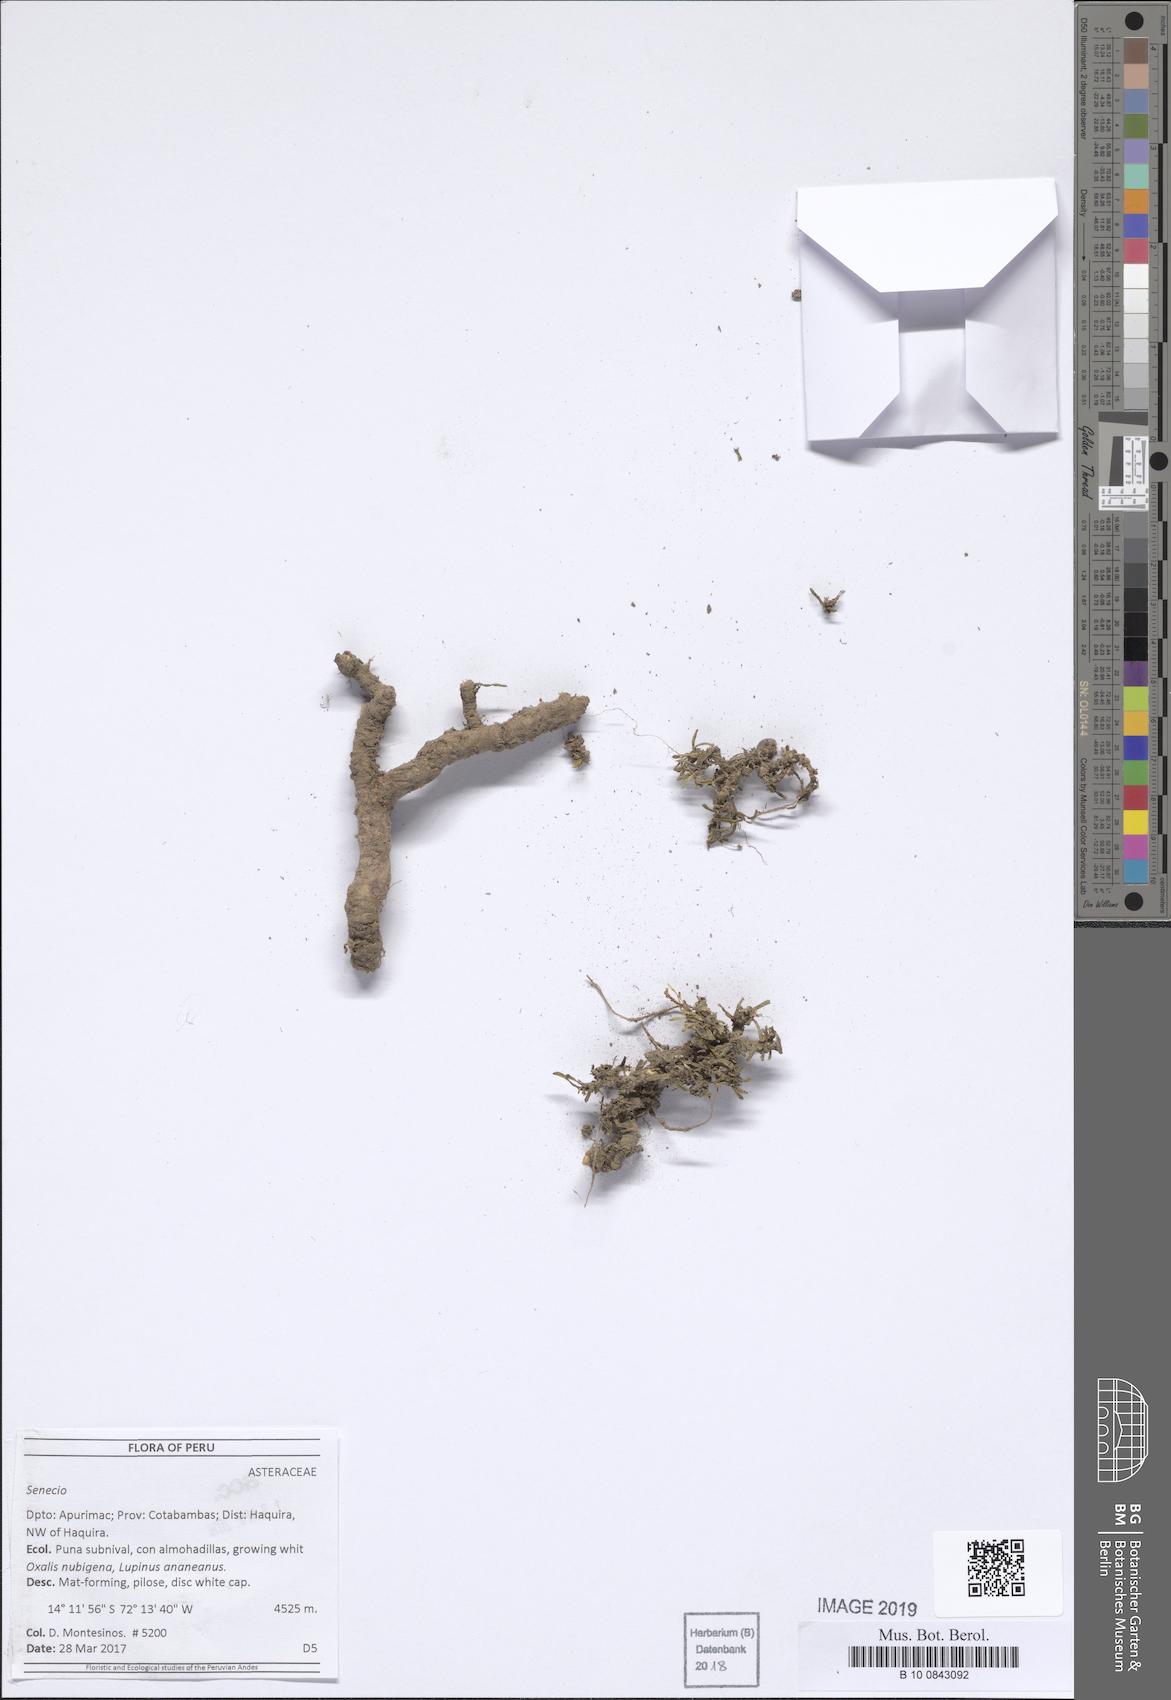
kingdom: Plantae
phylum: Tracheophyta
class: Magnoliopsida
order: Asterales
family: Asteraceae
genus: Senecio
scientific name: Senecio humillimus
